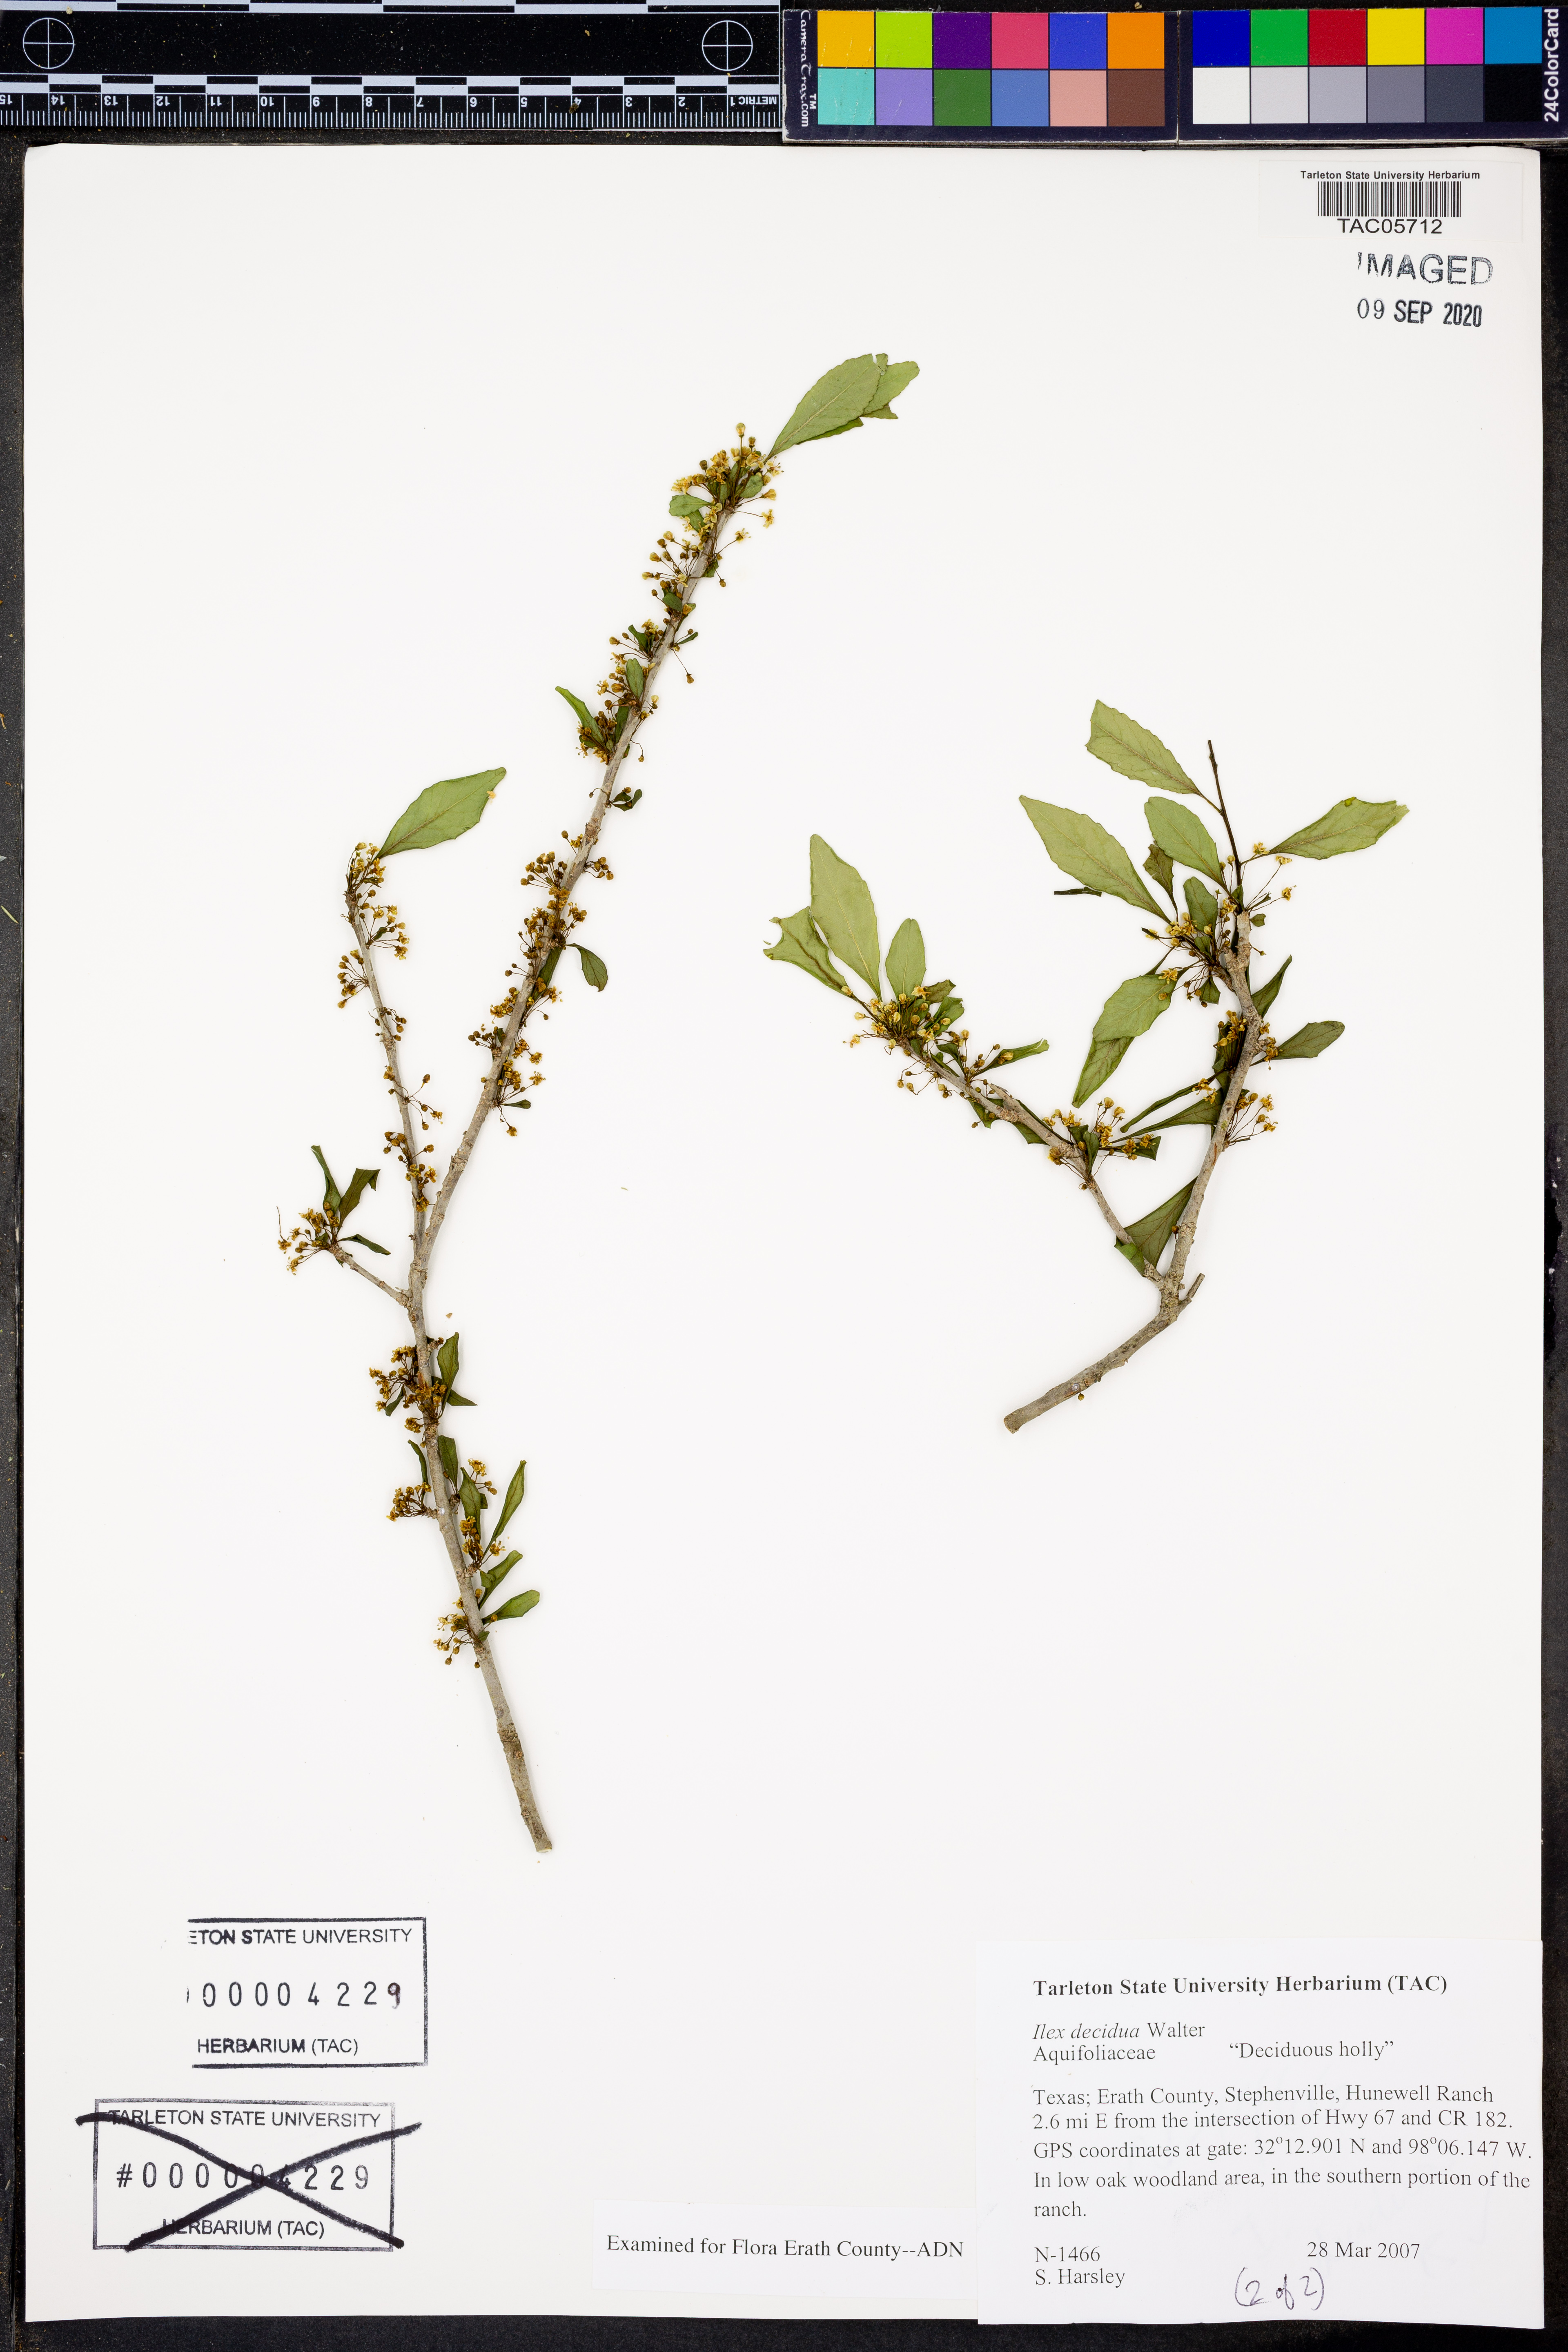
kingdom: Plantae
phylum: Tracheophyta
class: Magnoliopsida
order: Aquifoliales
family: Aquifoliaceae
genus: Ilex
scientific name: Ilex decidua
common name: Possum-haw
